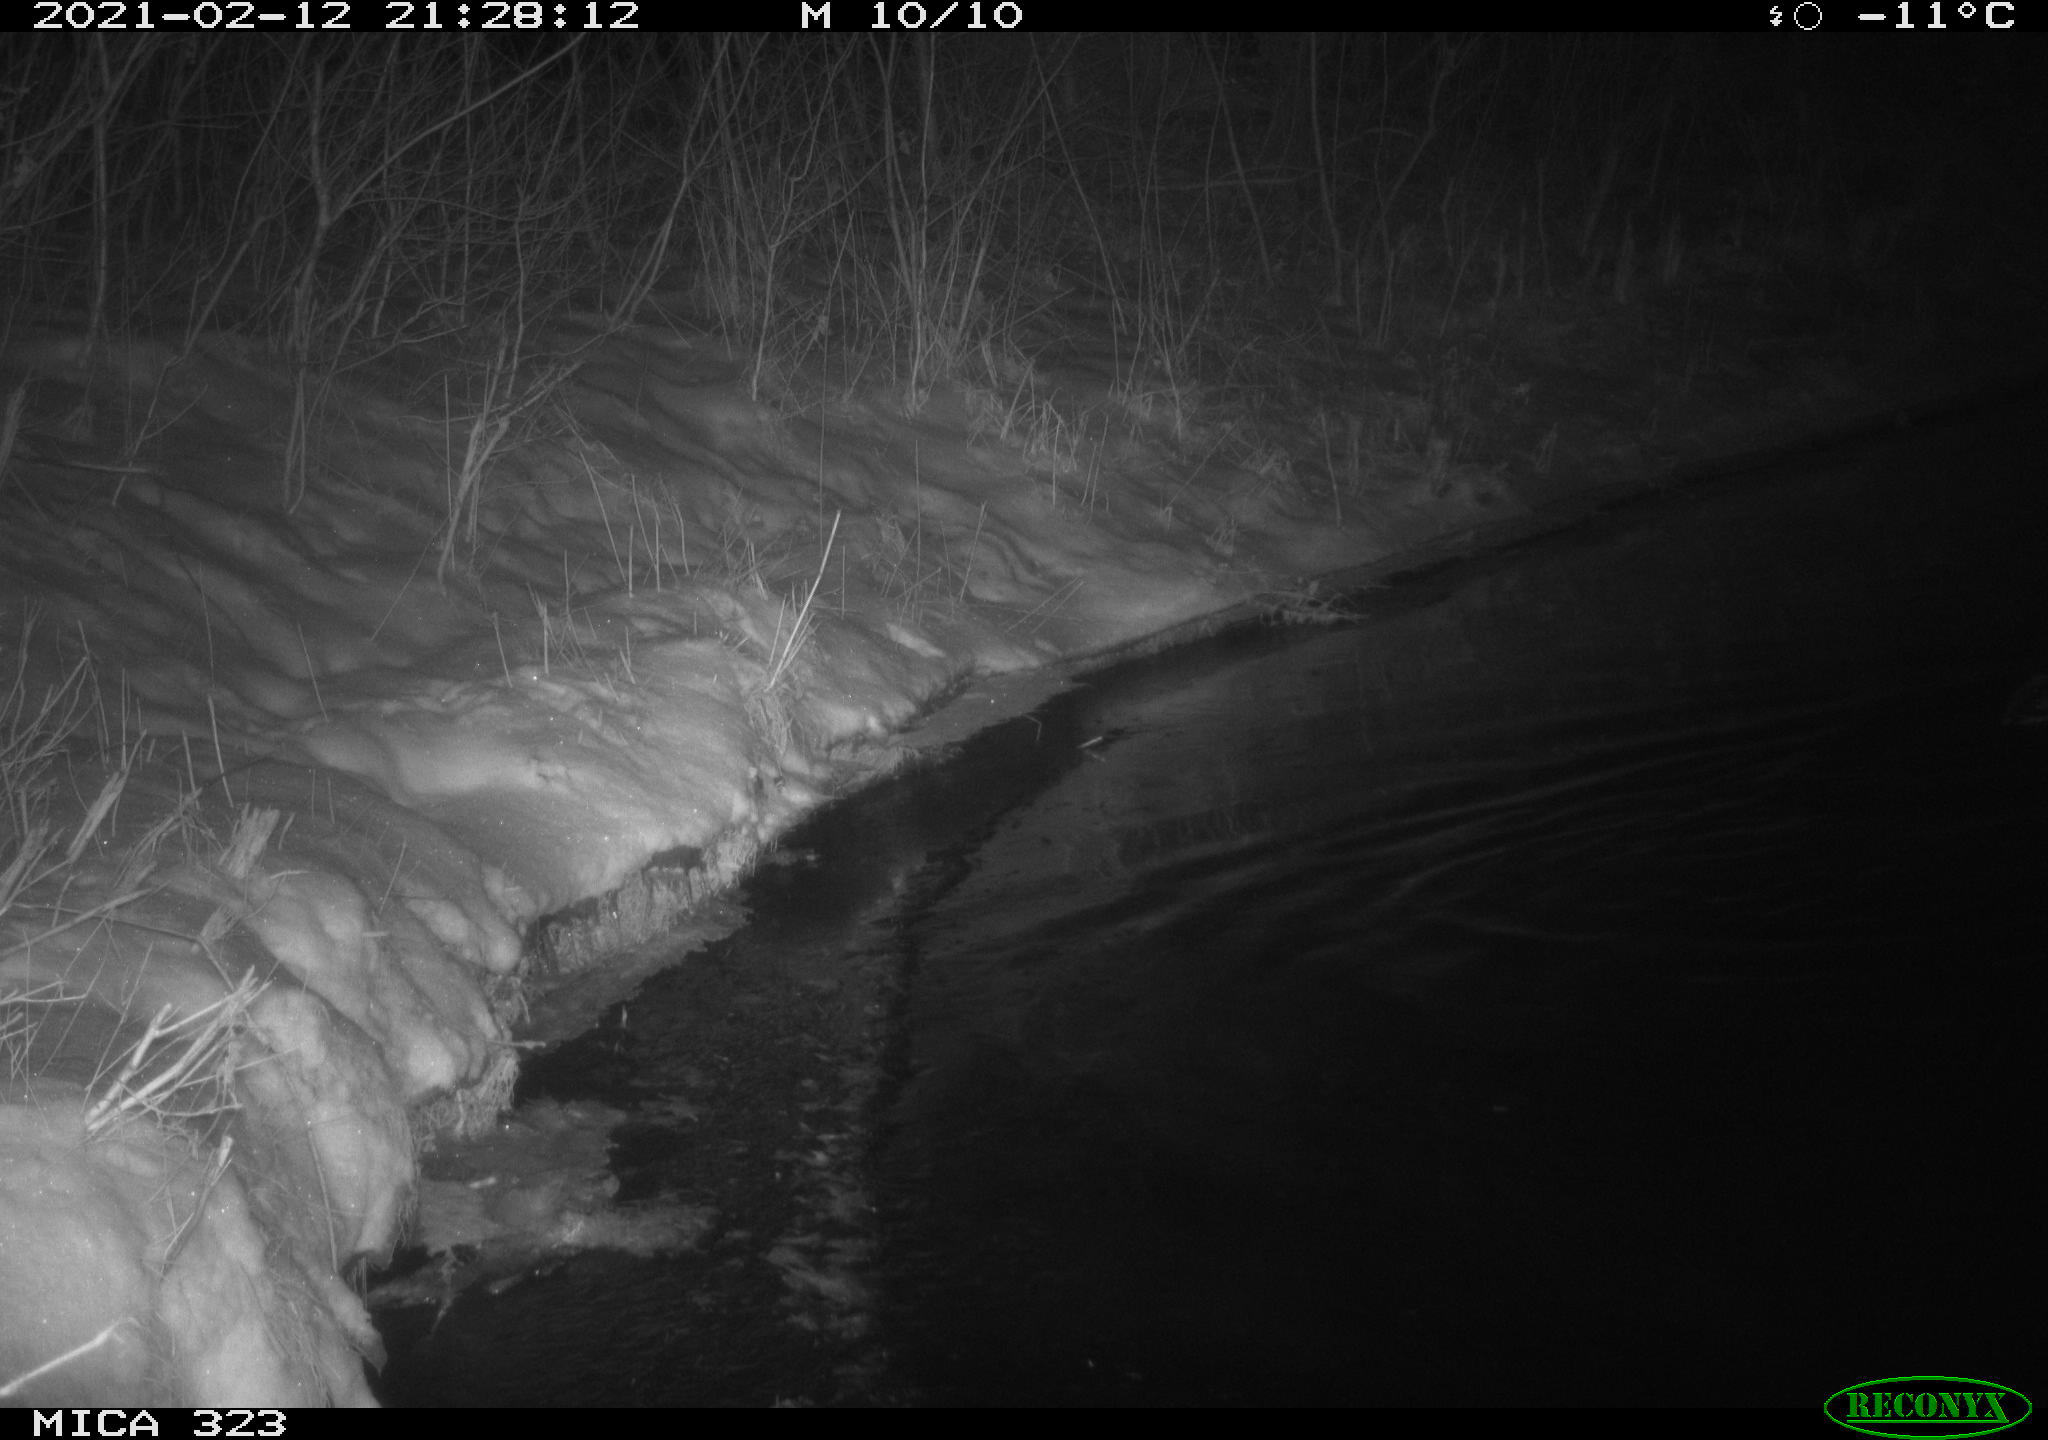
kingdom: Animalia
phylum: Chordata
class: Aves
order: Anseriformes
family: Anatidae
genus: Anas
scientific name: Anas
